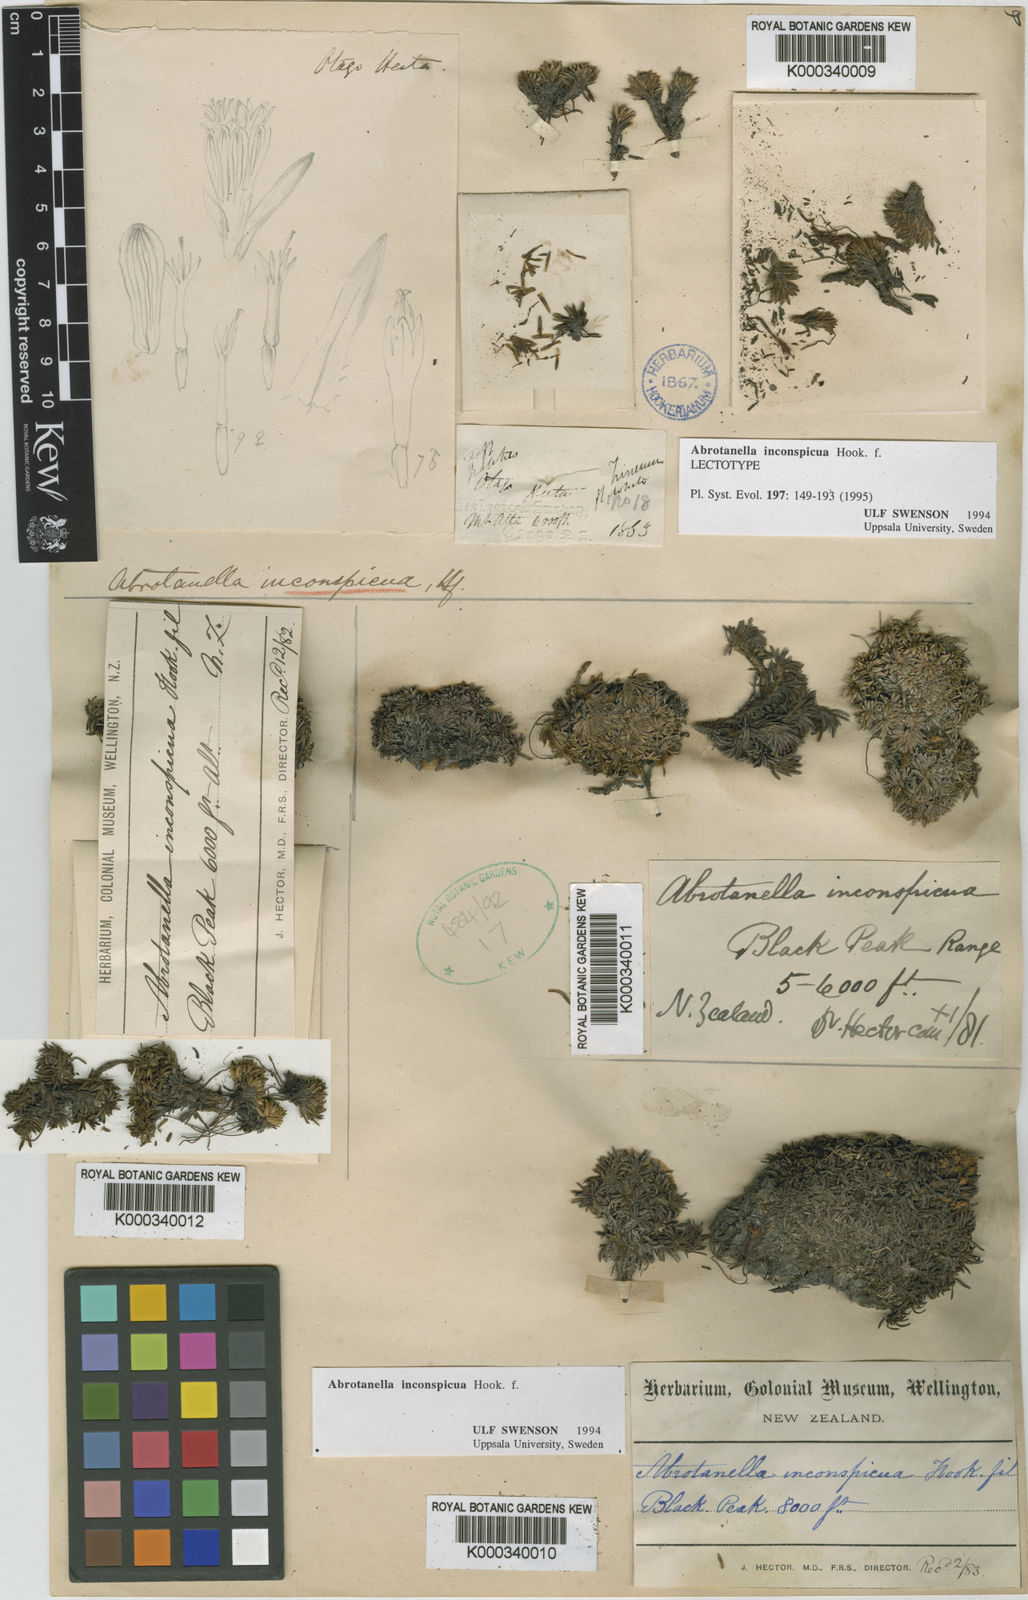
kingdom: Plantae
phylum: Tracheophyta
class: Magnoliopsida
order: Asterales
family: Asteraceae
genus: Abrotanella
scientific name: Abrotanella inconspicua
